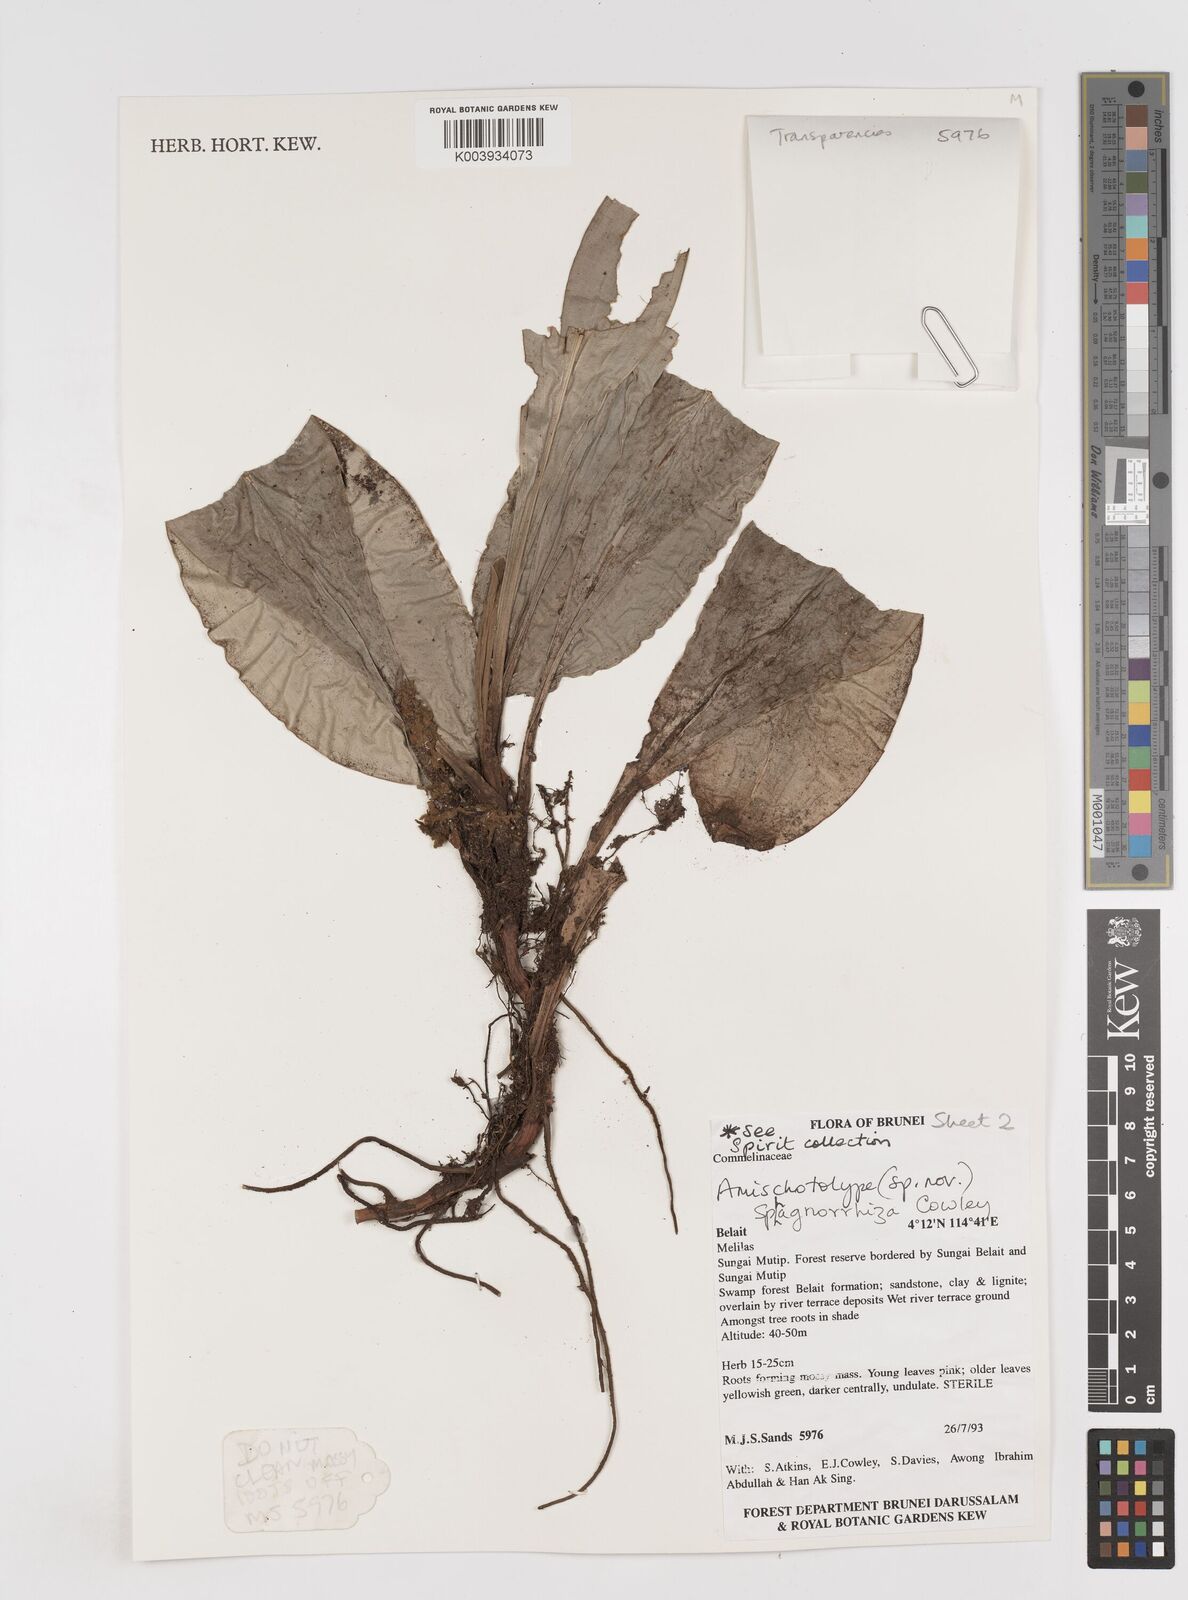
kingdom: Plantae
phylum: Tracheophyta
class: Liliopsida
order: Commelinales
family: Commelinaceae
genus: Amischotolype
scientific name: Amischotolype sphagnorrhiza
